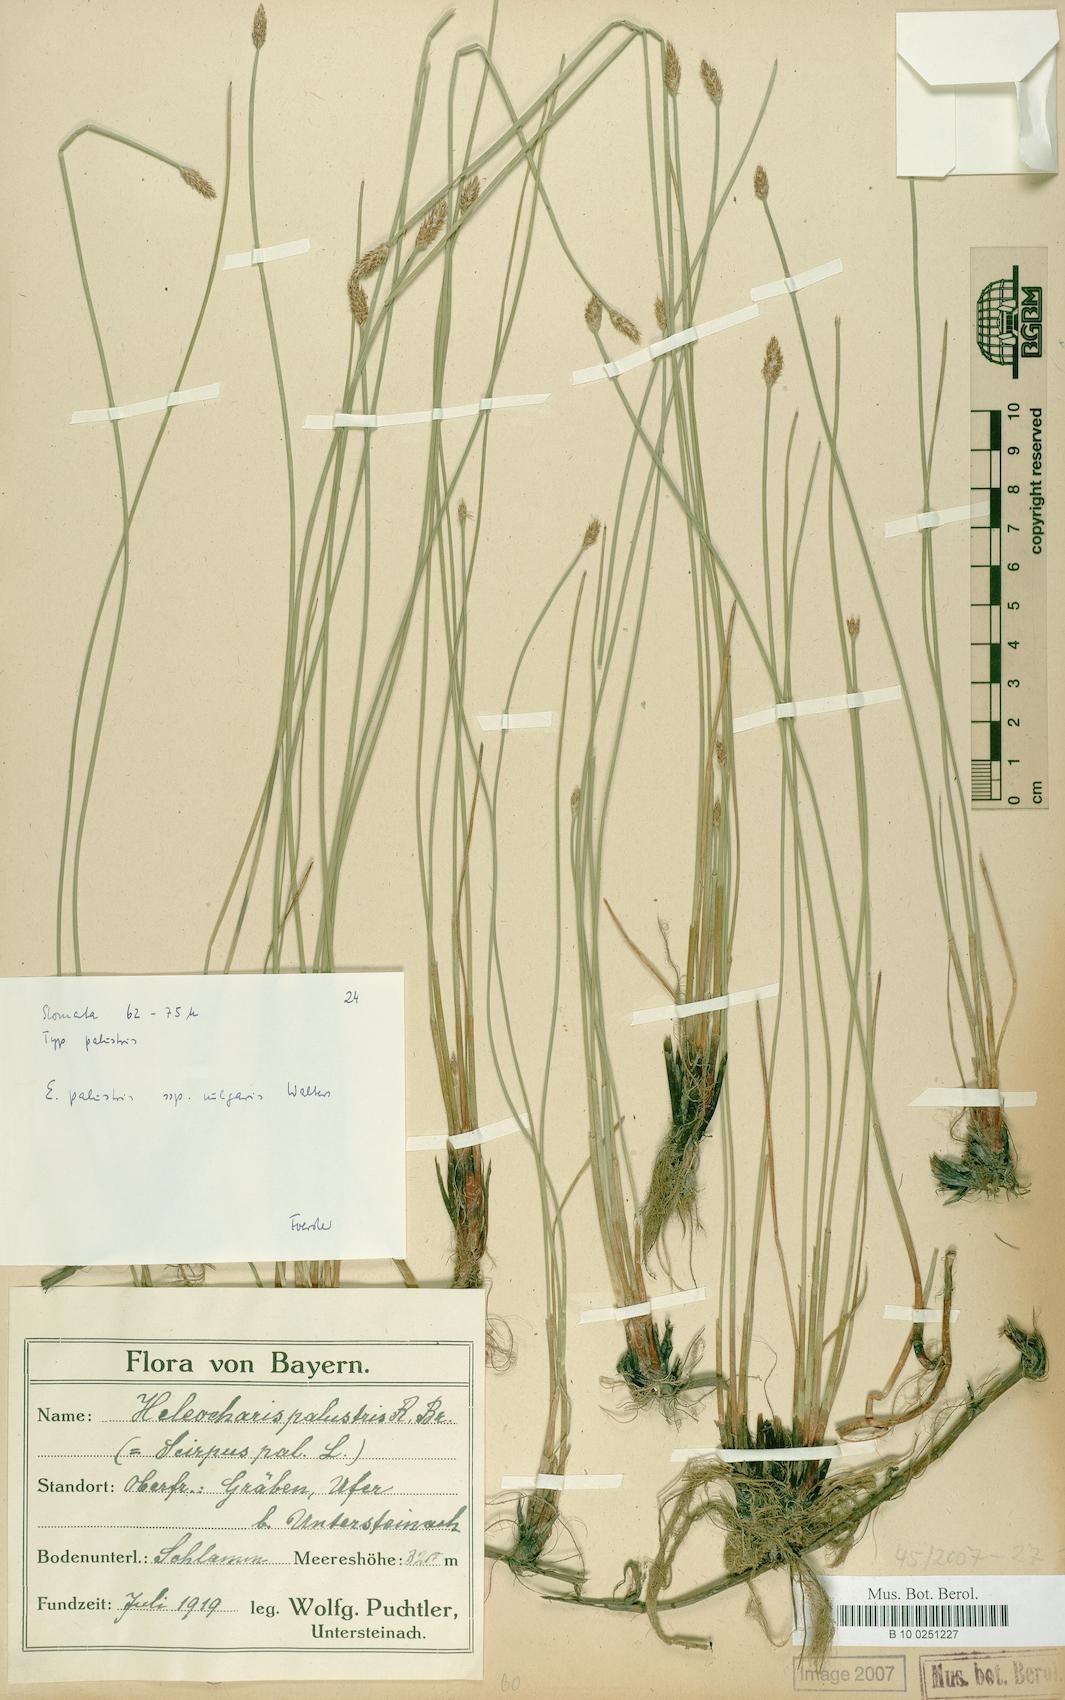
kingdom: Plantae
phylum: Tracheophyta
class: Liliopsida
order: Poales
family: Cyperaceae
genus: Eleocharis
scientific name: Eleocharis palustris
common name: Common spike-rush
